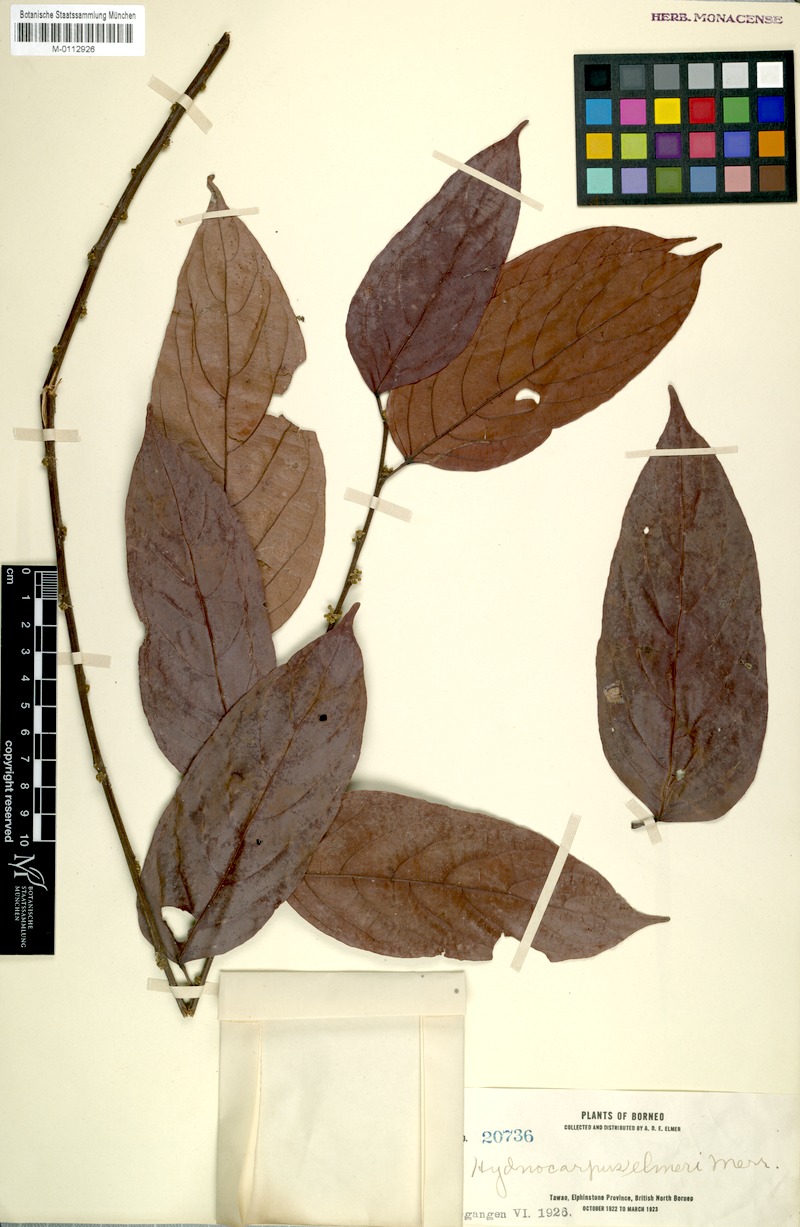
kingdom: Plantae
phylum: Tracheophyta
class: Magnoliopsida
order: Malpighiales
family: Achariaceae
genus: Hydnocarpus
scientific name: Hydnocarpus elmeri
